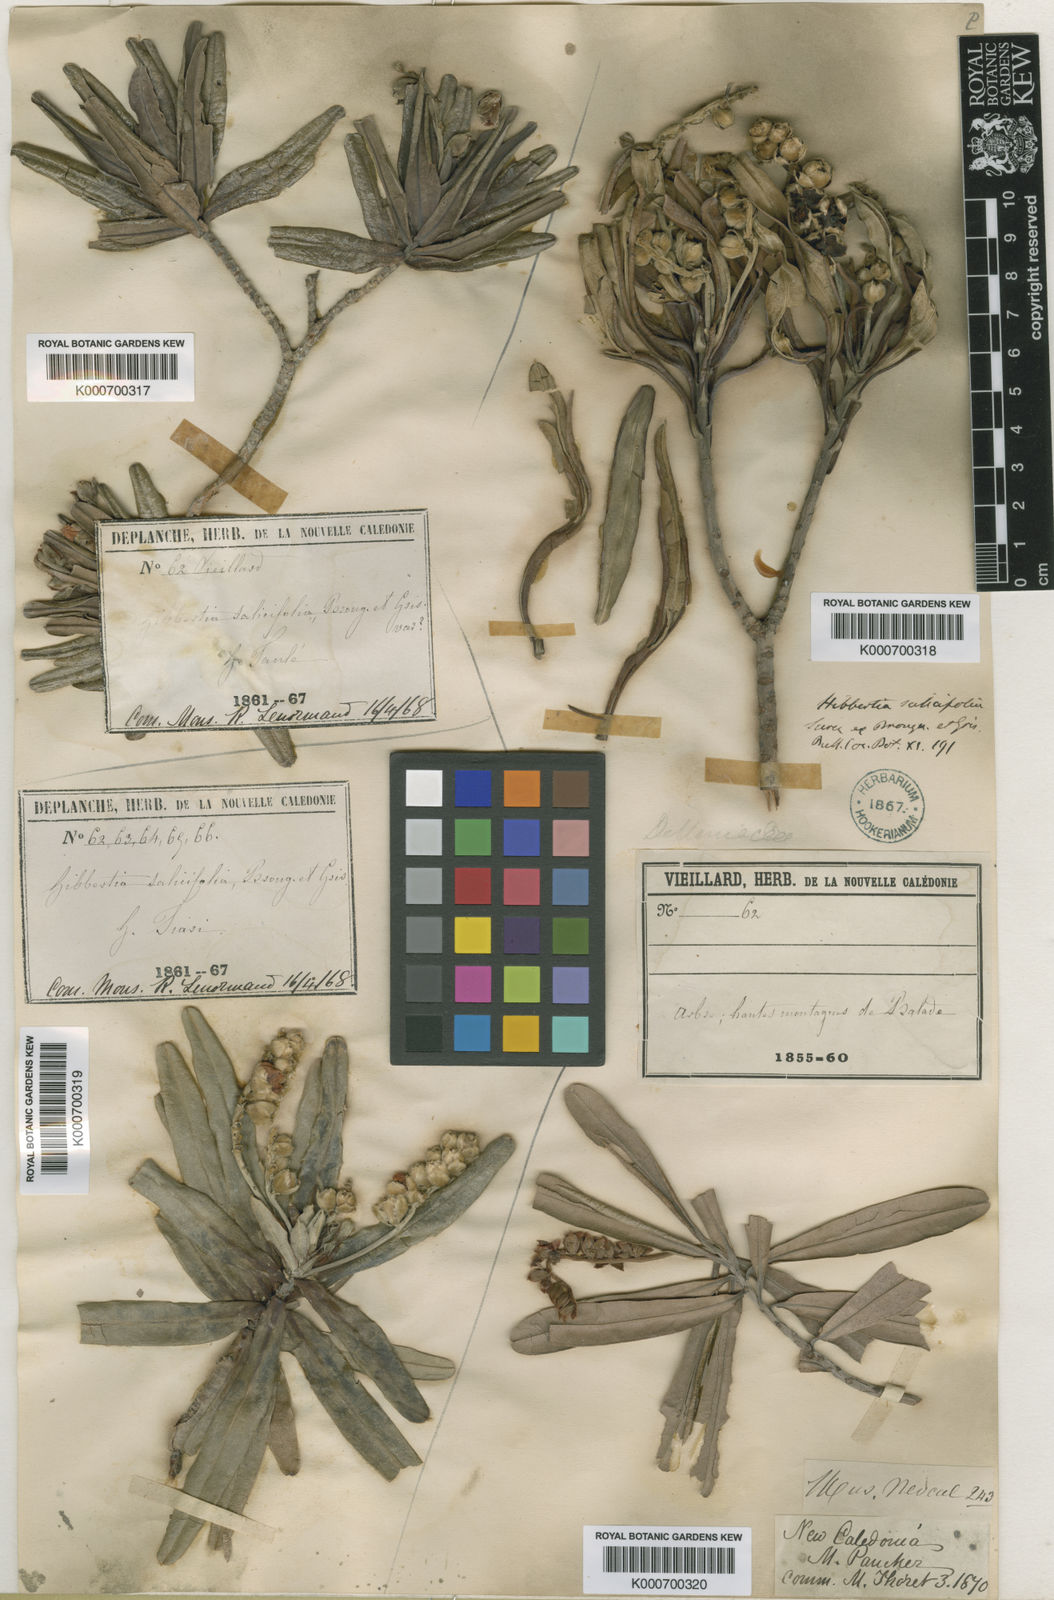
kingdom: Plantae
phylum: Tracheophyta
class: Magnoliopsida
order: Dilleniales
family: Dilleniaceae
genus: Hibbertia
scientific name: Hibbertia
